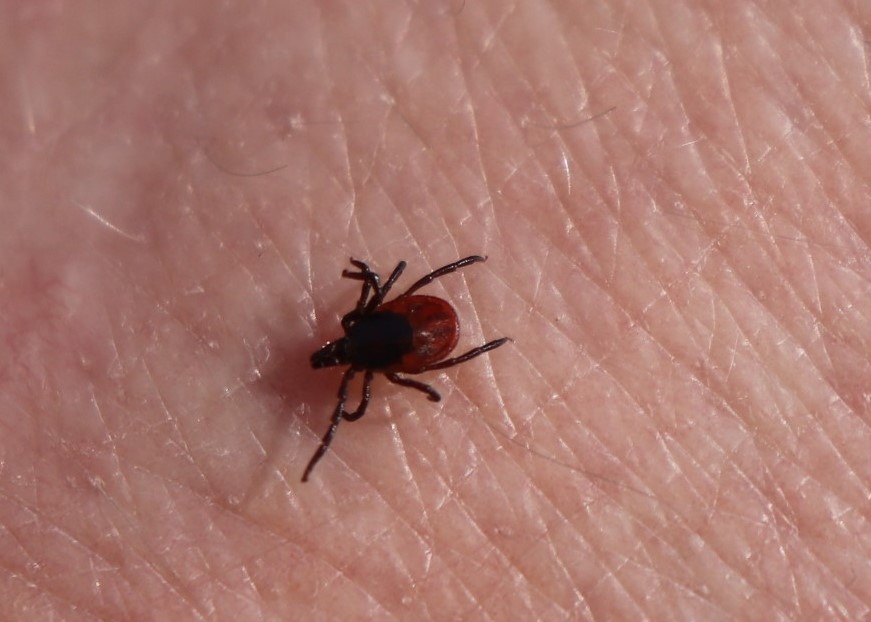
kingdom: Animalia
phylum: Arthropoda
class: Arachnida
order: Ixodida
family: Ixodidae
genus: Ixodes
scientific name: Ixodes ricinus
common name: Skovflåt
